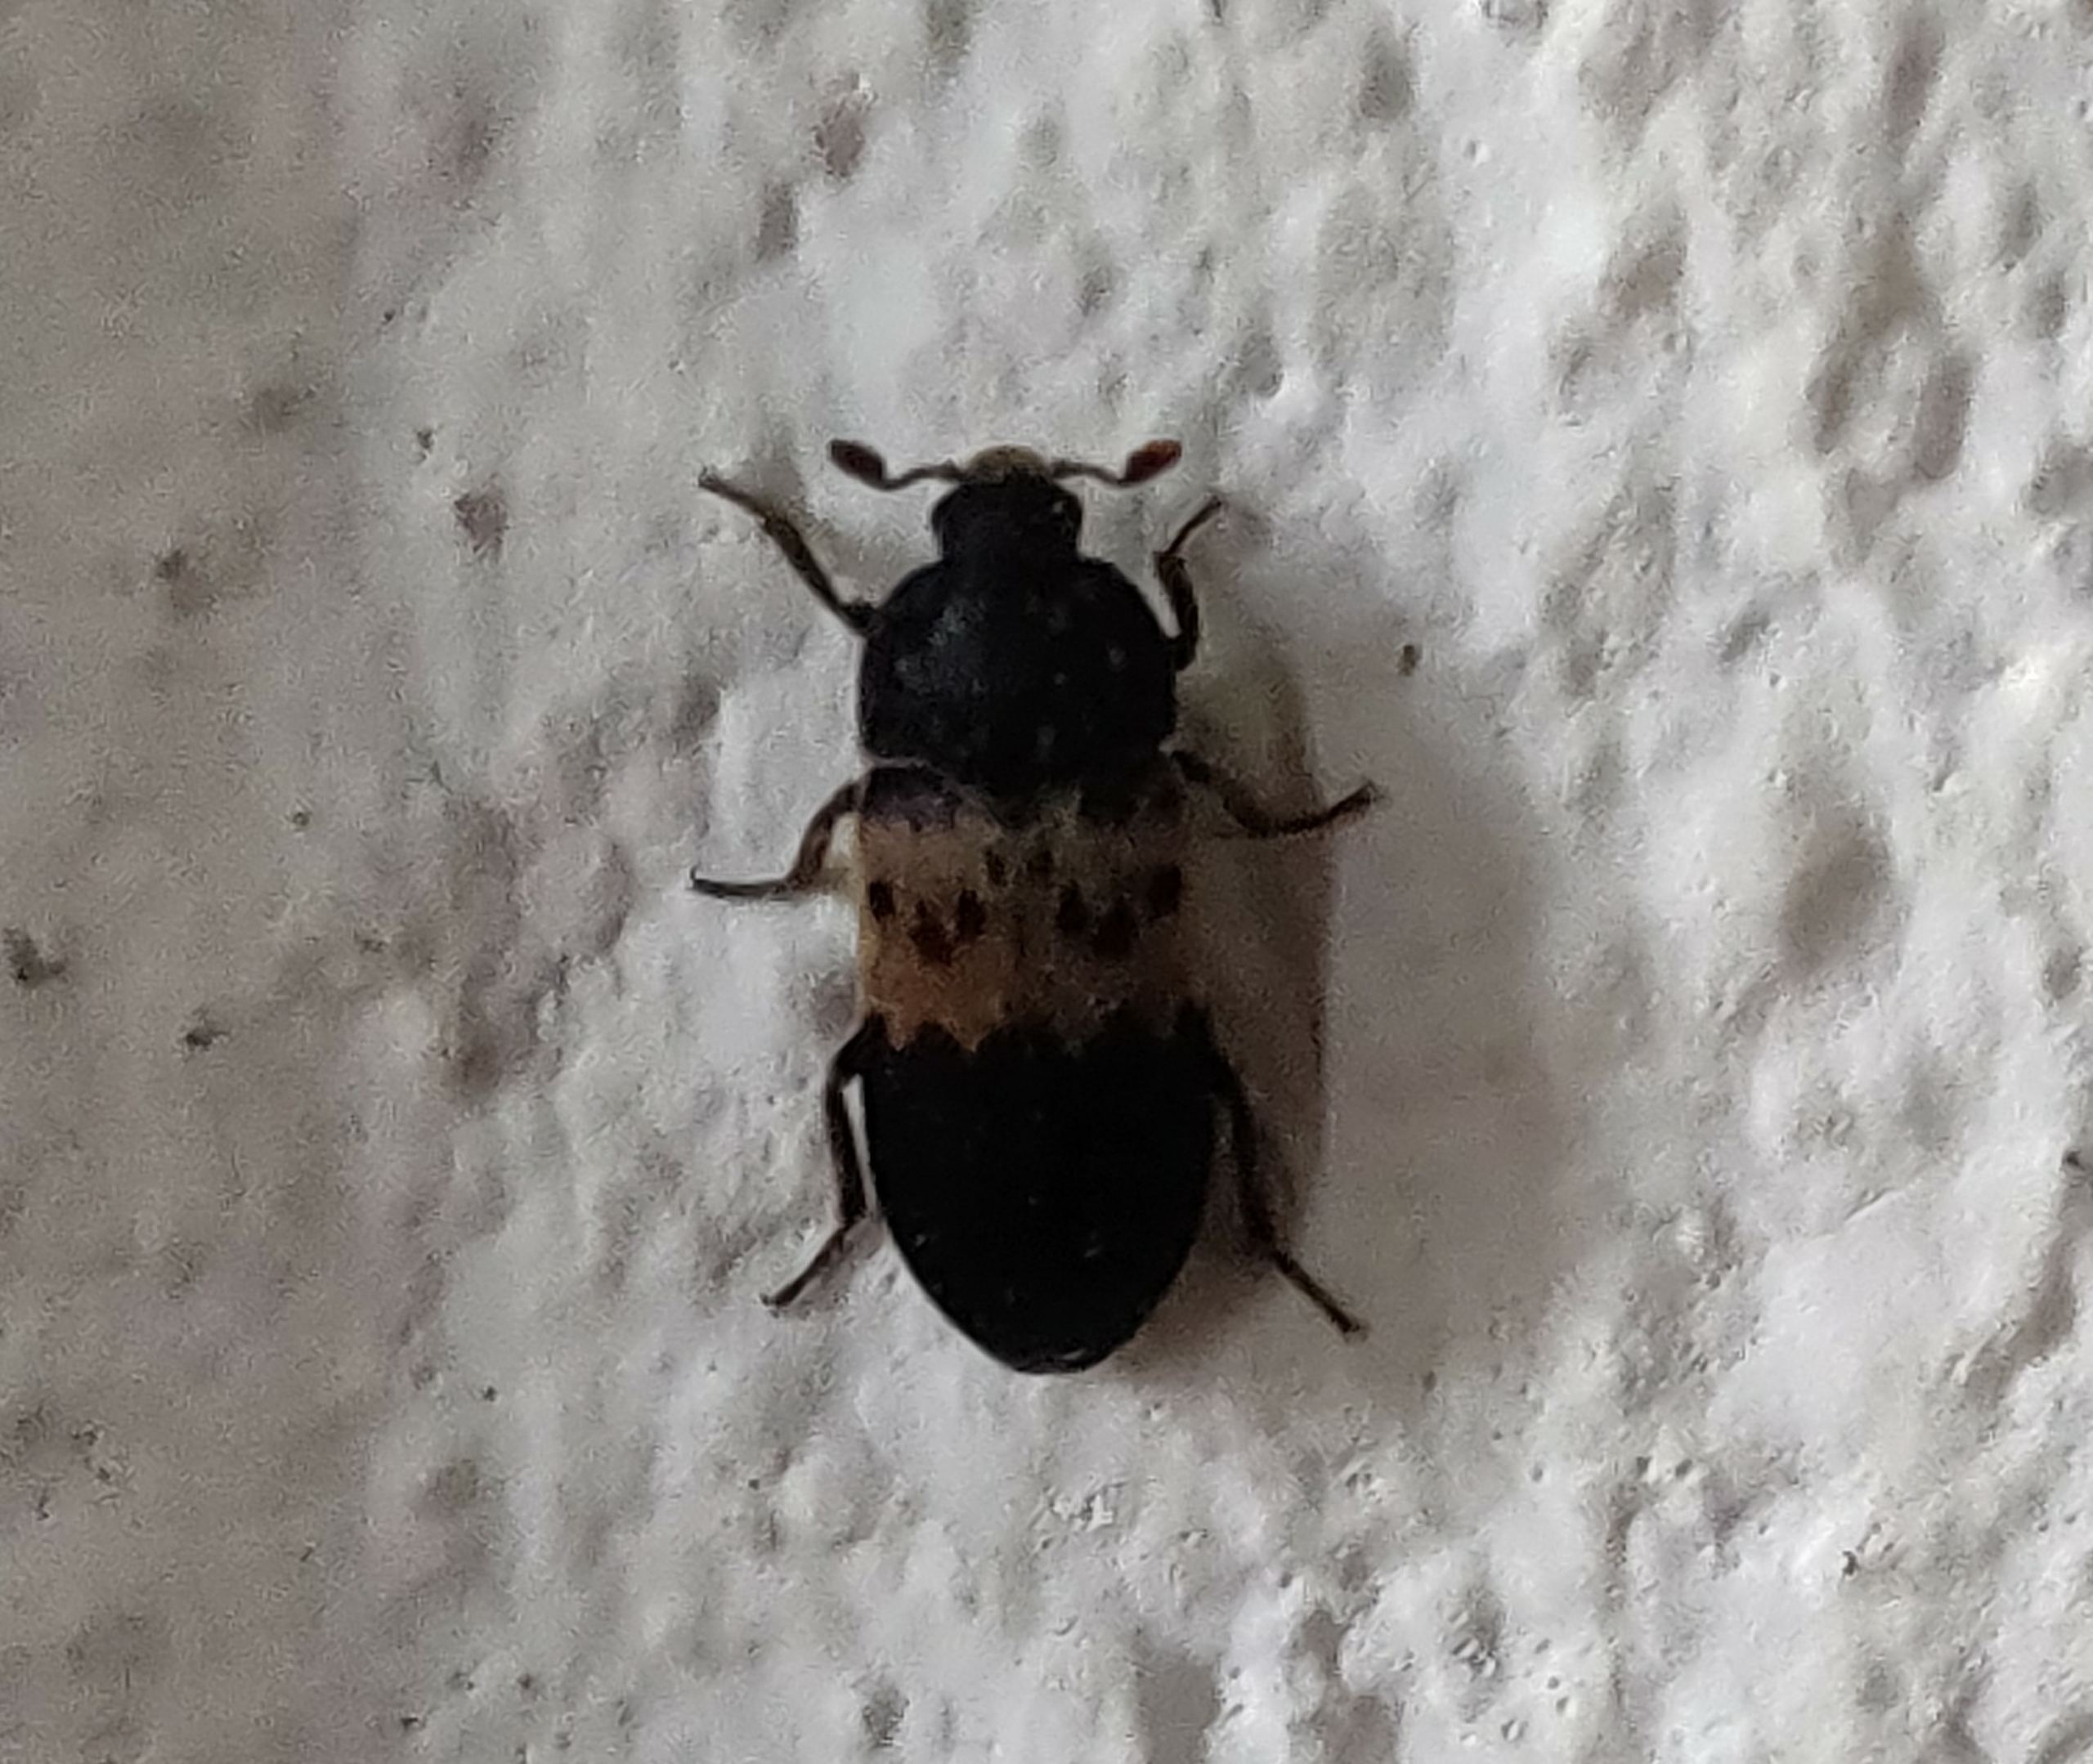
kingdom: Animalia
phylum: Arthropoda
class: Insecta
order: Coleoptera
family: Dermestidae
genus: Dermestes
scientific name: Dermestes lardarius
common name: Flæskeklanner
